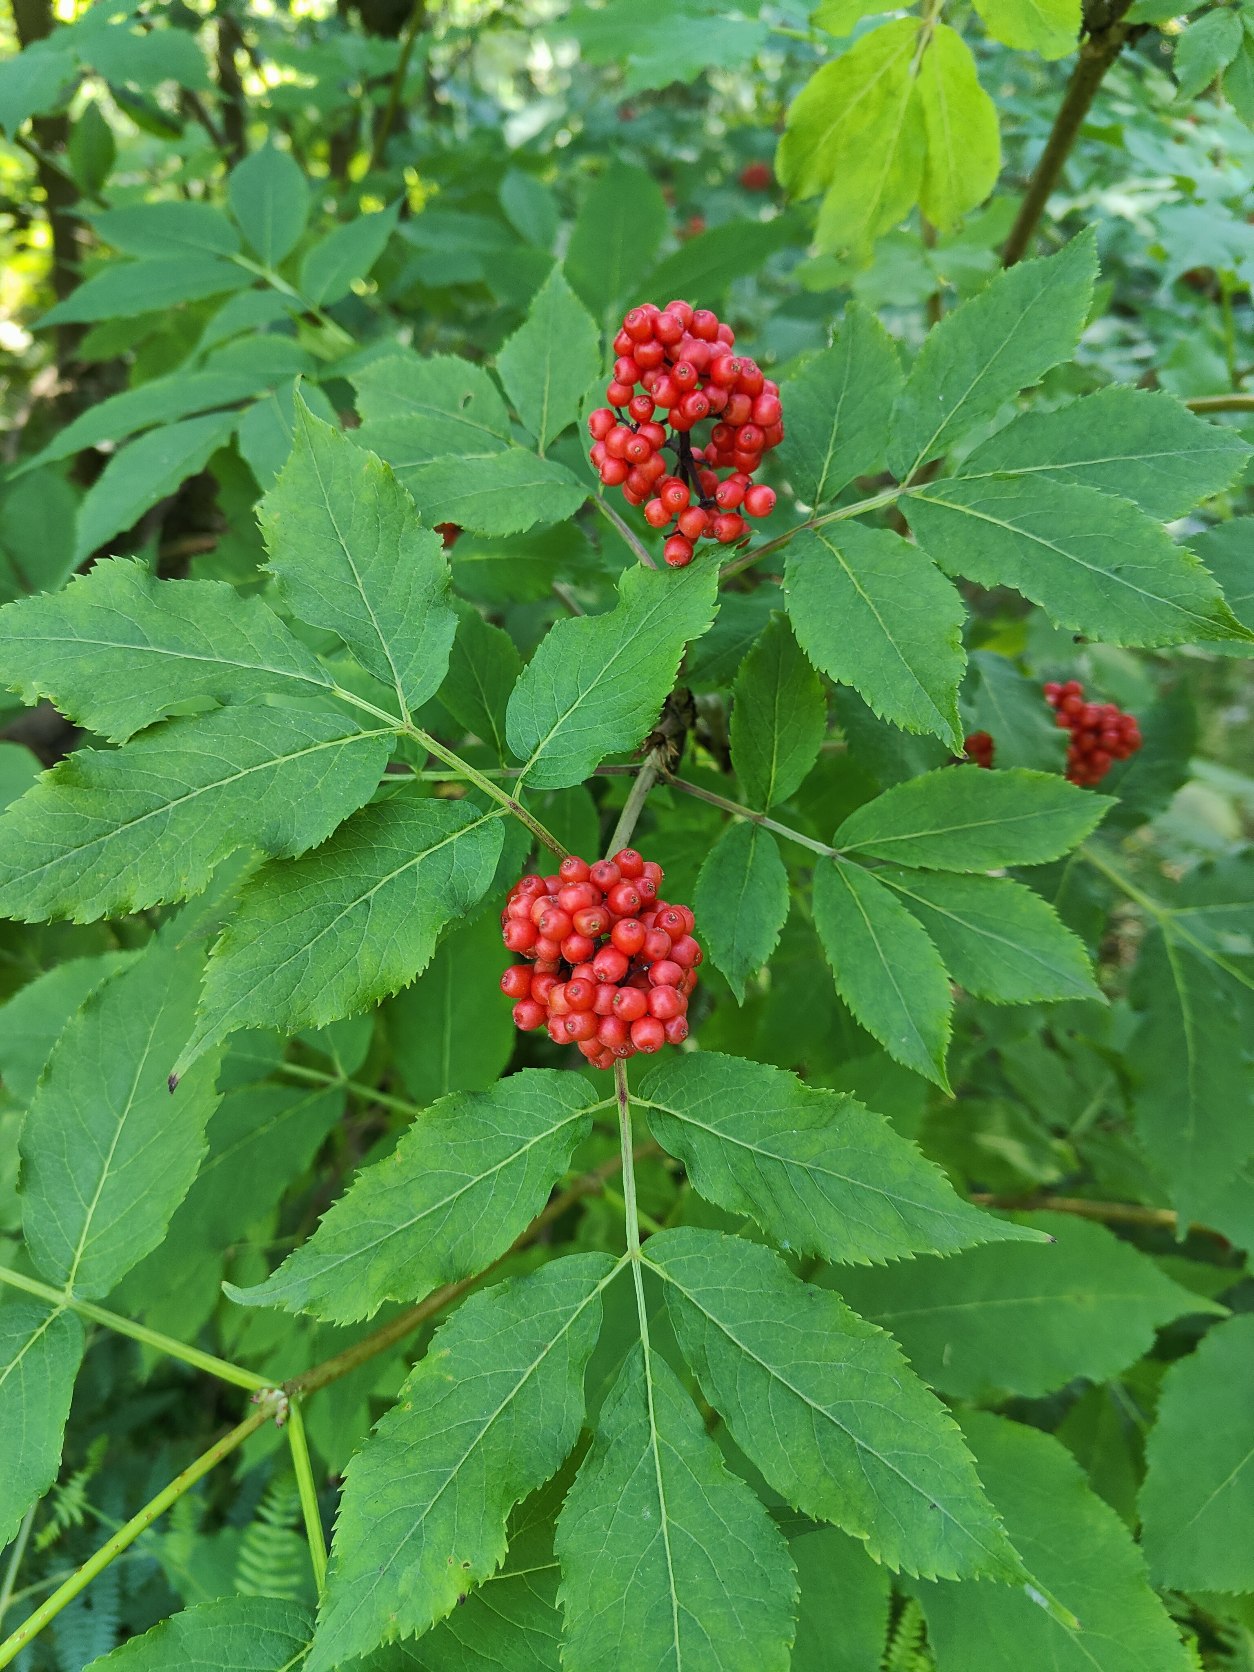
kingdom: Plantae
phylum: Tracheophyta
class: Magnoliopsida
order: Dipsacales
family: Viburnaceae
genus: Sambucus
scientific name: Sambucus racemosa
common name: Drue-hyld
